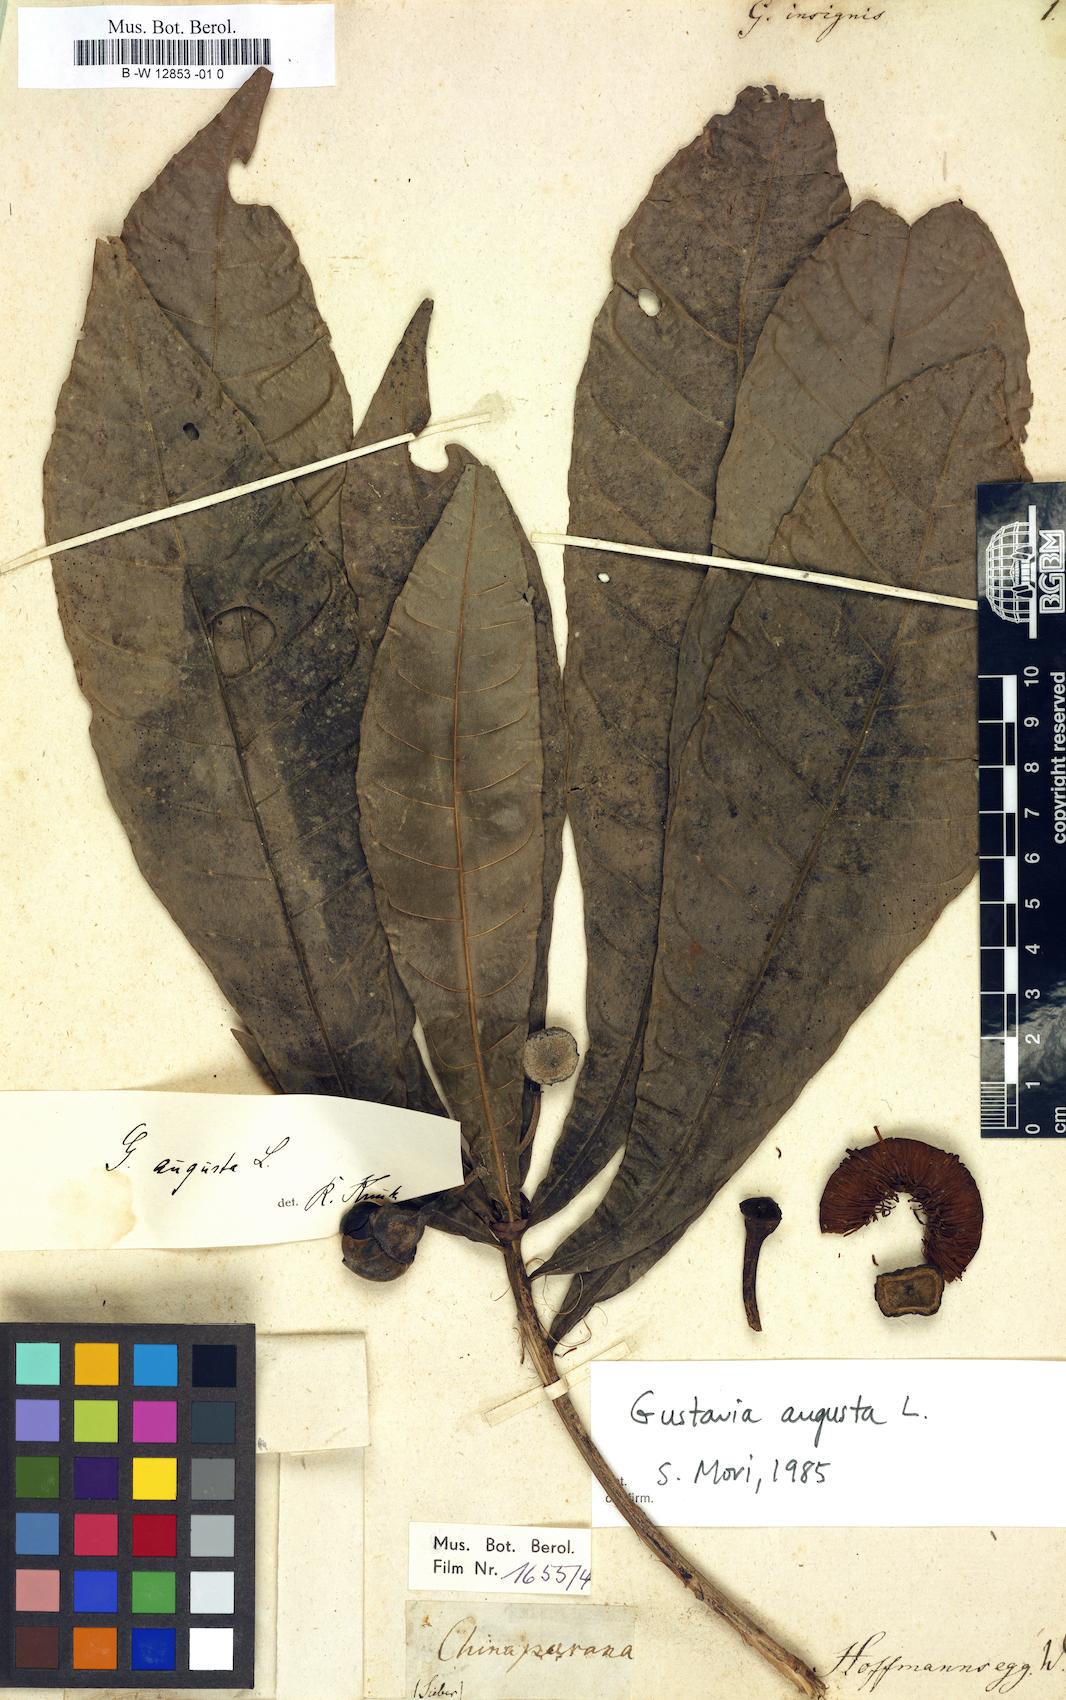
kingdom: Plantae
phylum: Tracheophyta
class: Magnoliopsida
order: Ericales
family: Lecythidaceae
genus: Gustavia
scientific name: Gustavia
